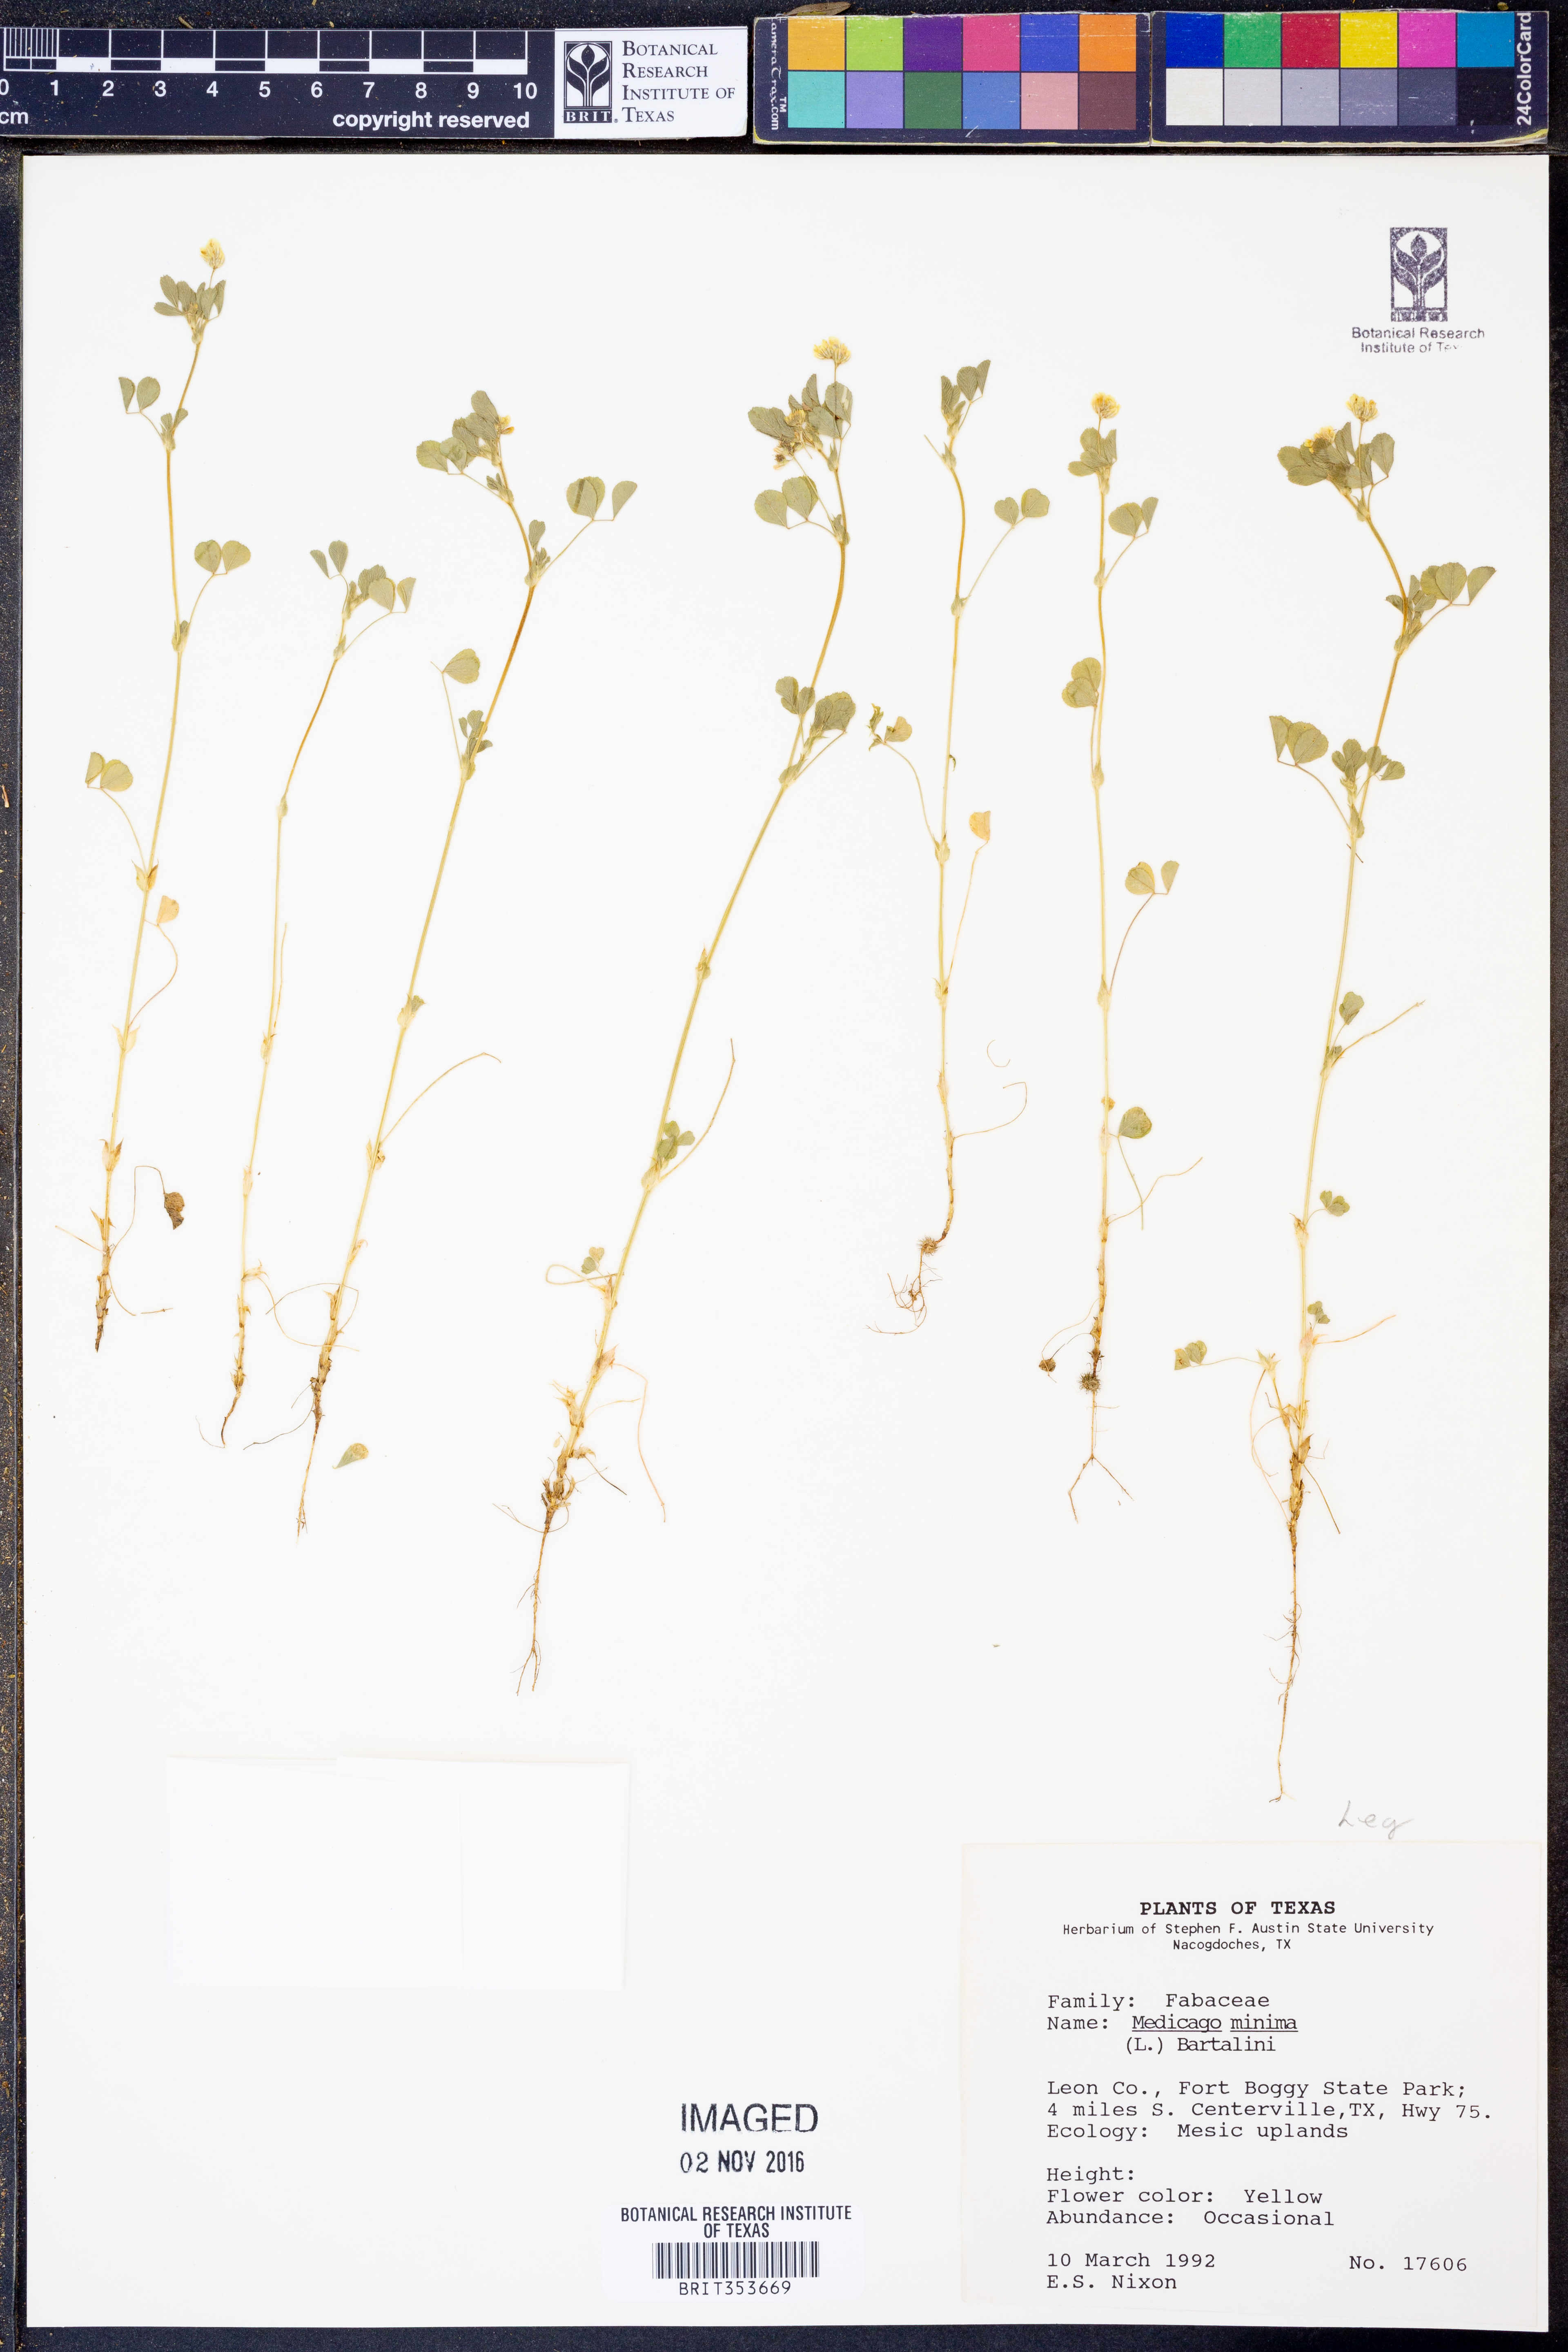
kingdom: Plantae
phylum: Tracheophyta
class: Magnoliopsida
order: Fabales
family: Fabaceae
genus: Medicago
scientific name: Medicago minima
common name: Little bur-clover
